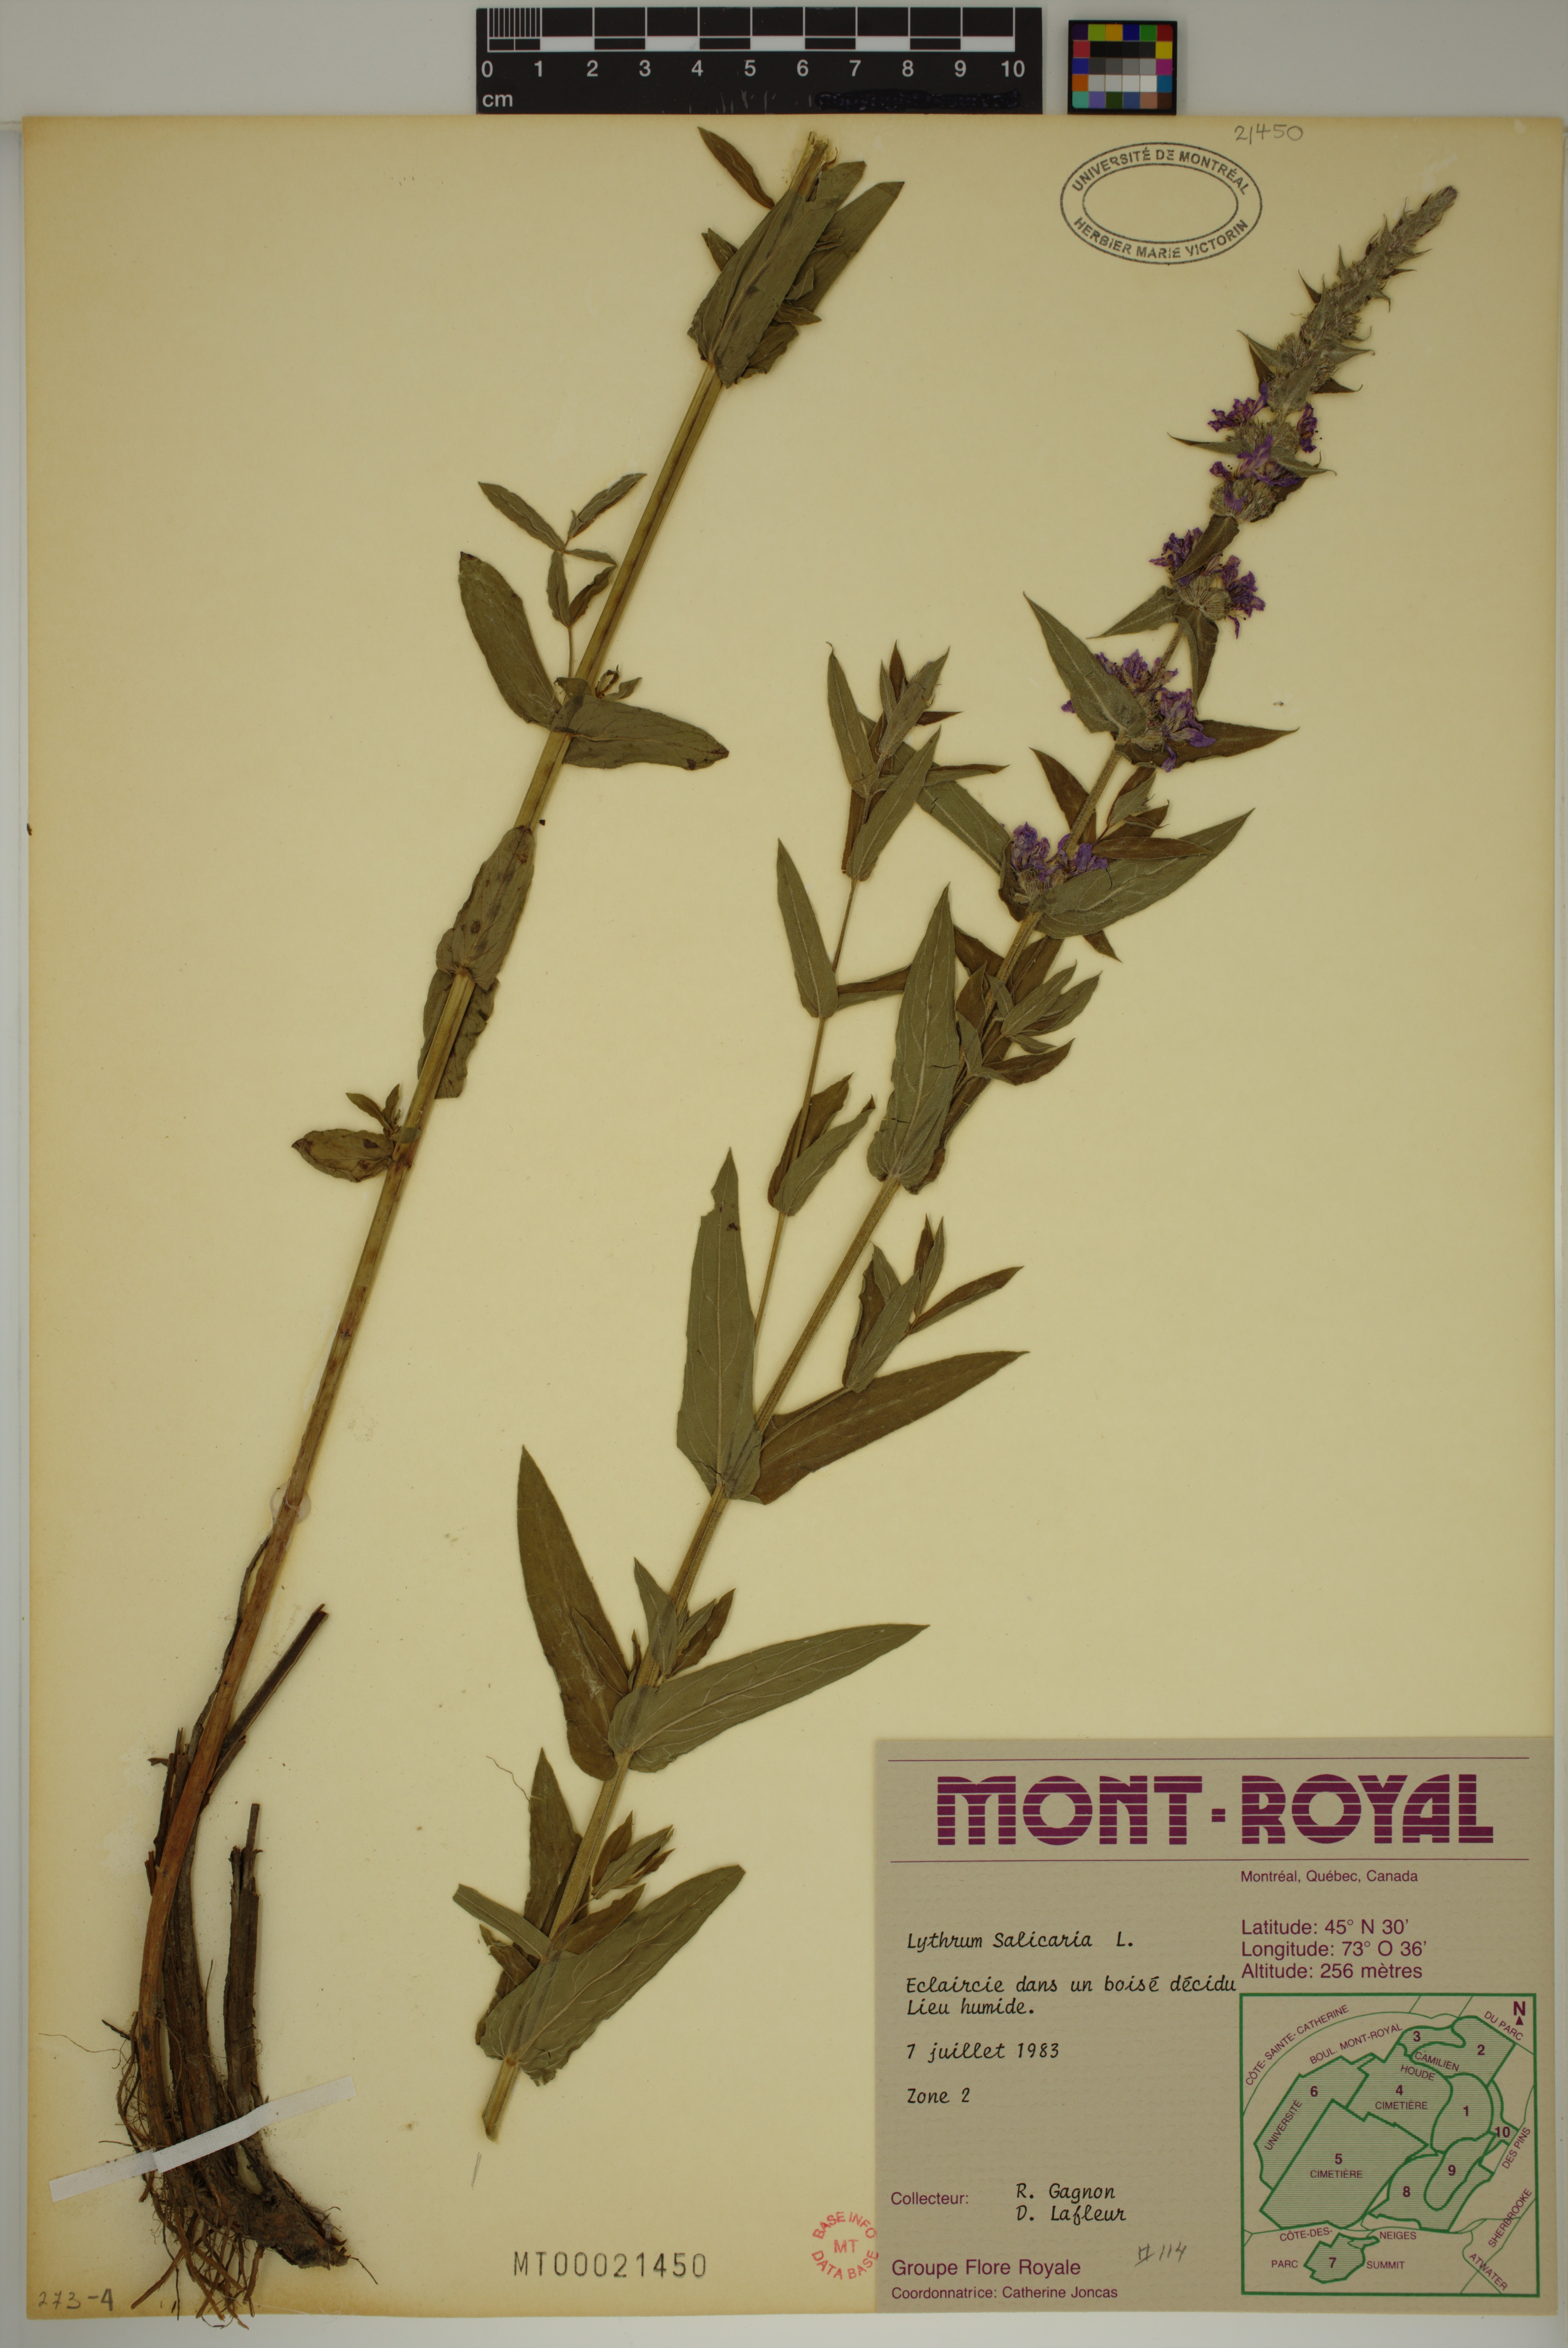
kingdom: Plantae
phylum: Tracheophyta
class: Magnoliopsida
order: Myrtales
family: Lythraceae
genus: Lythrum
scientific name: Lythrum salicaria
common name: Purple loosestrife
